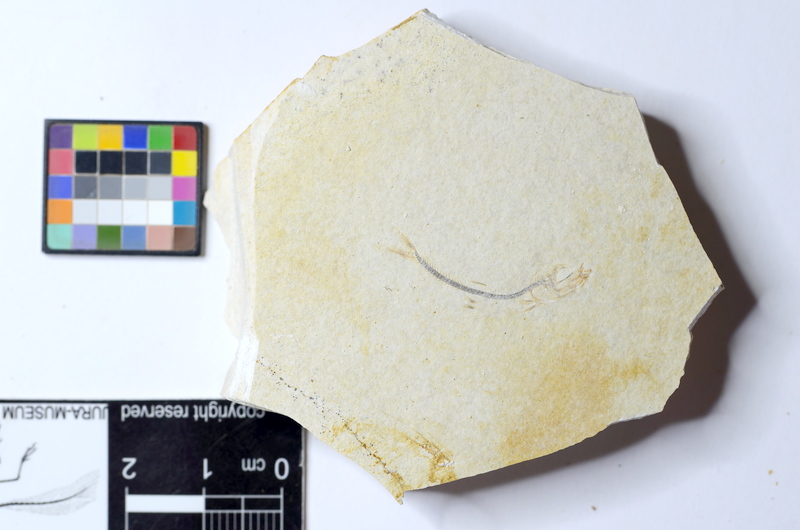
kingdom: Animalia
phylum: Chordata
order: Salmoniformes
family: Orthogonikleithridae
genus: Orthogonikleithrus
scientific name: Orthogonikleithrus hoelli
